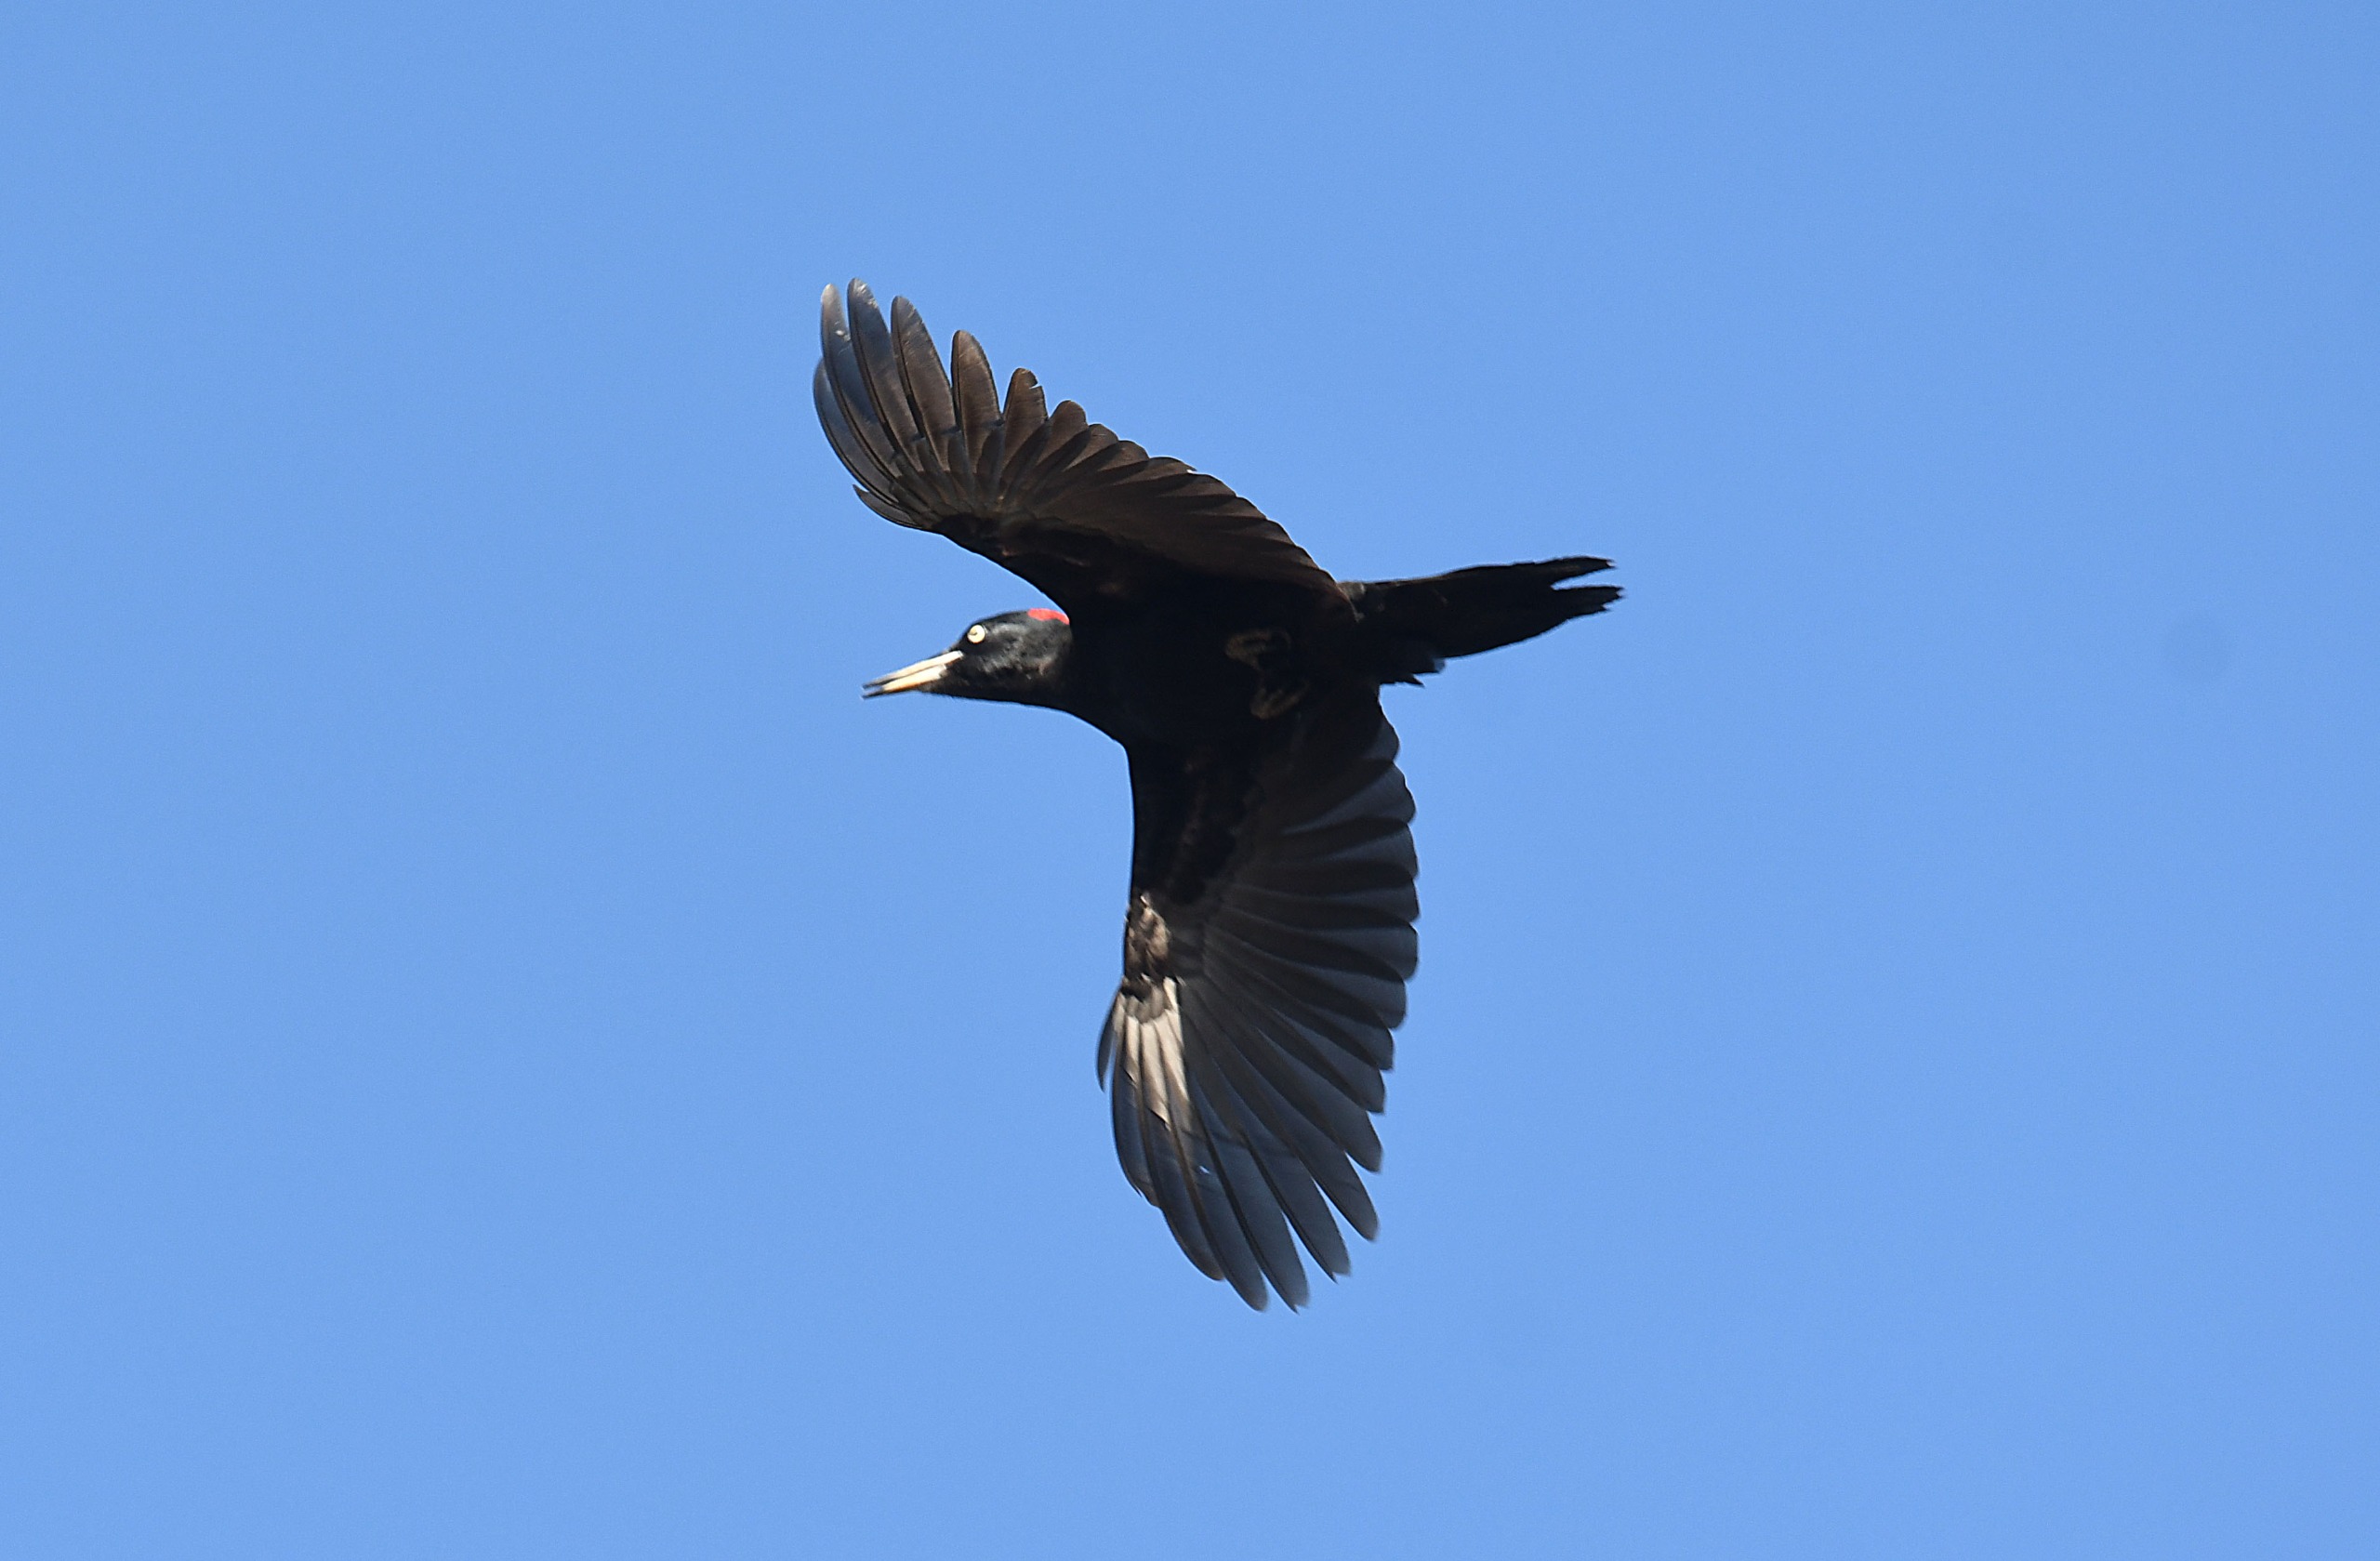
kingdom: Animalia
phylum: Chordata
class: Aves
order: Piciformes
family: Picidae
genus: Dryocopus
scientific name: Dryocopus martius
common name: Sortspætte
